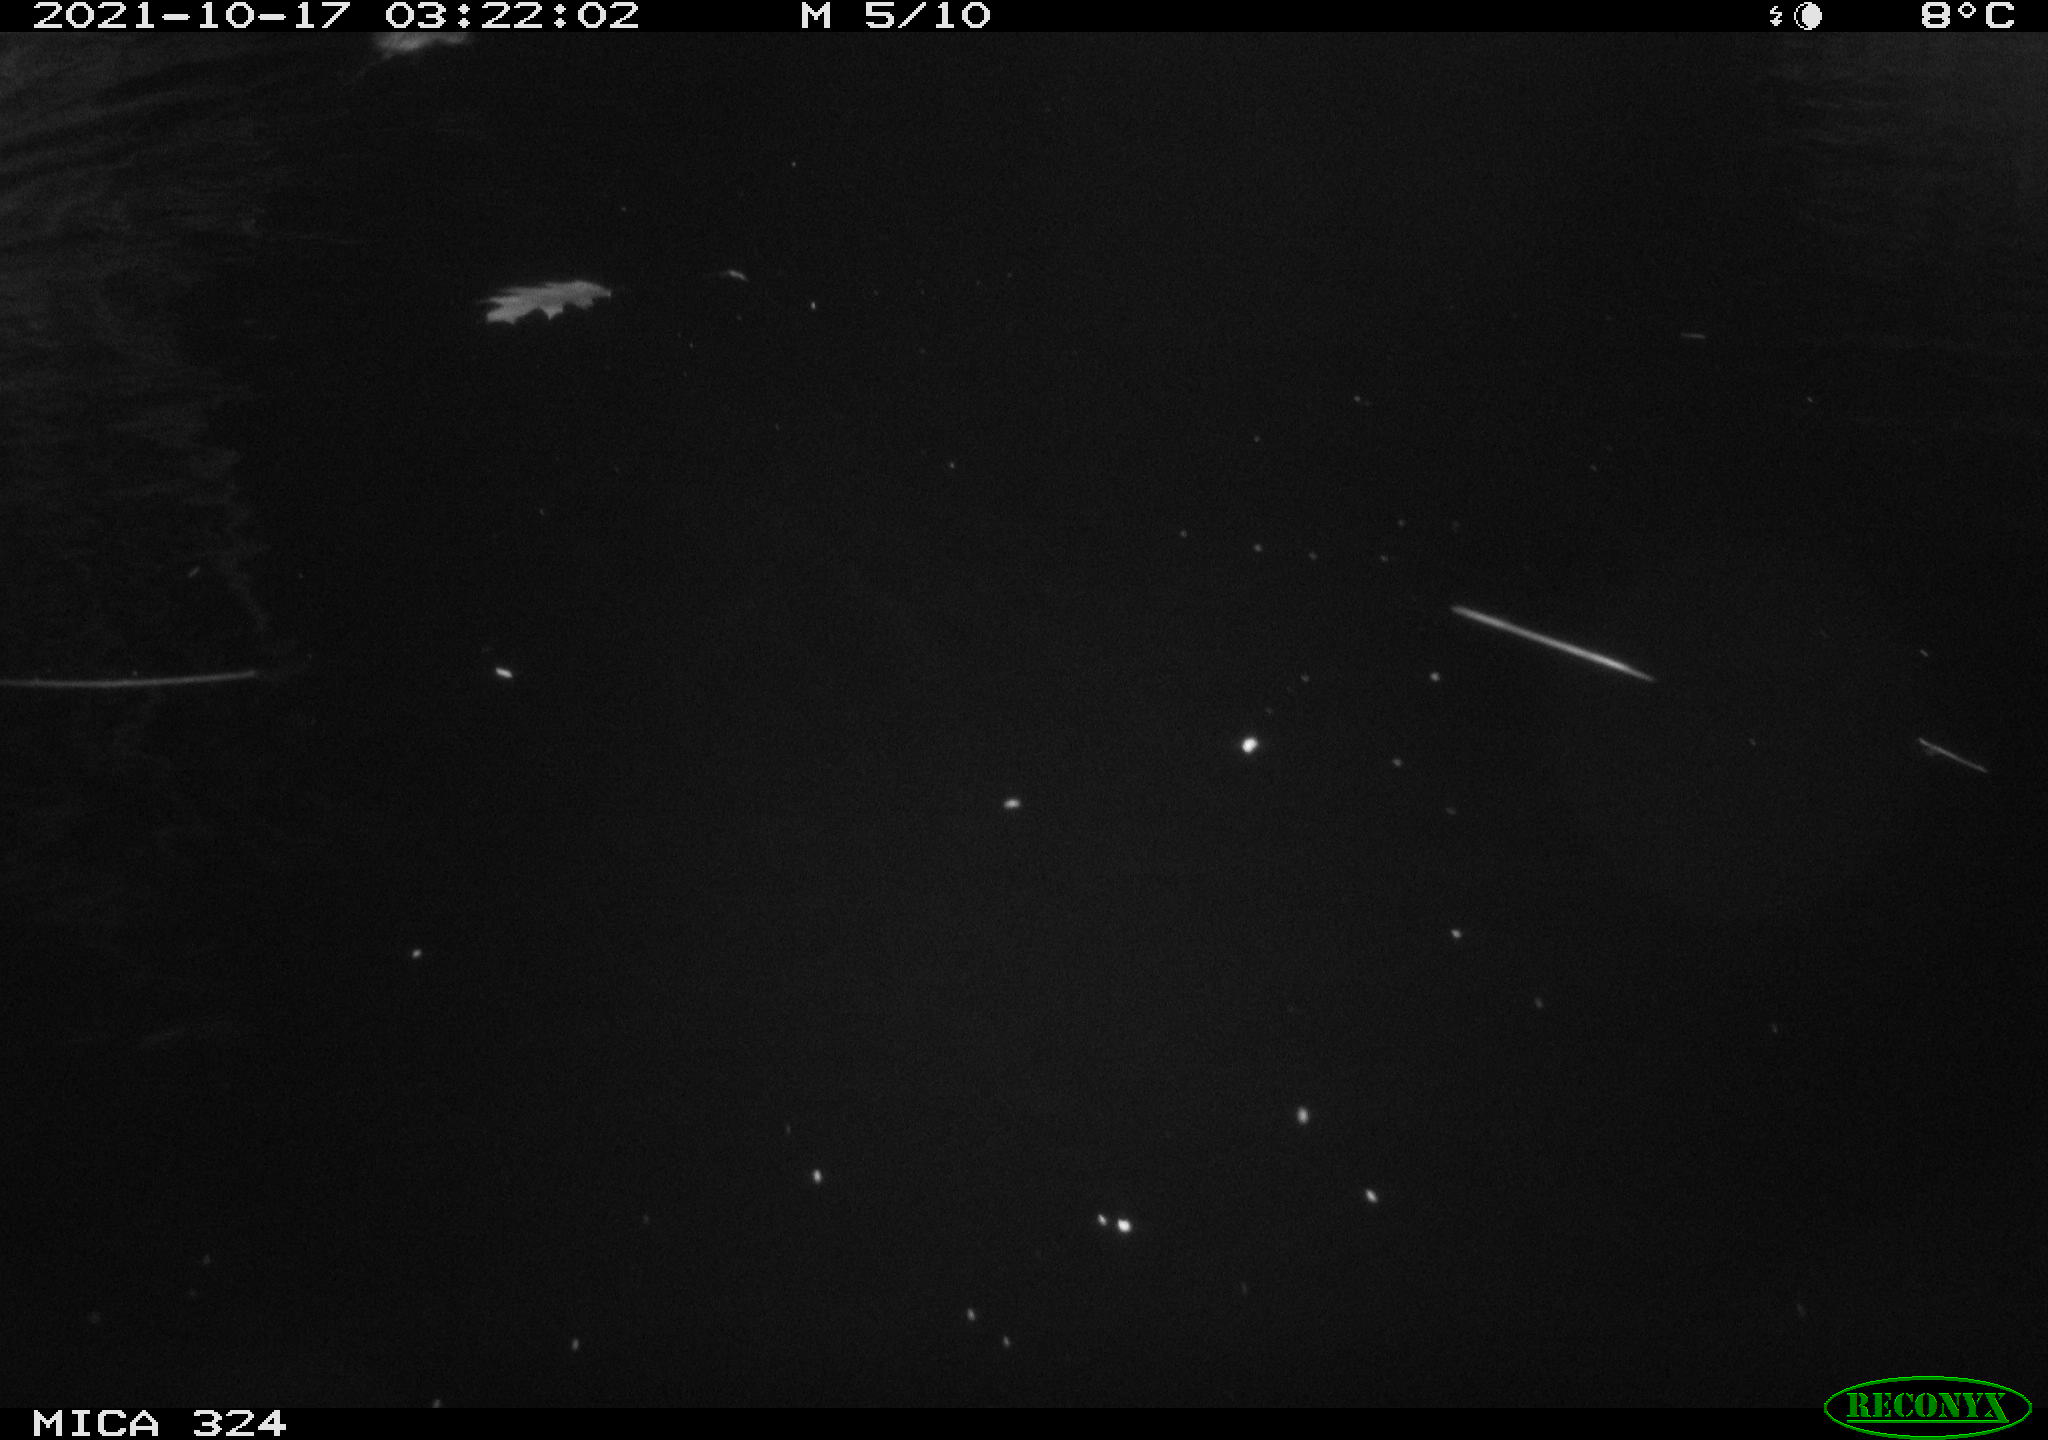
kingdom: Animalia
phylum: Chordata
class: Mammalia
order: Rodentia
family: Cricetidae
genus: Ondatra
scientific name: Ondatra zibethicus
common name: Muskrat
